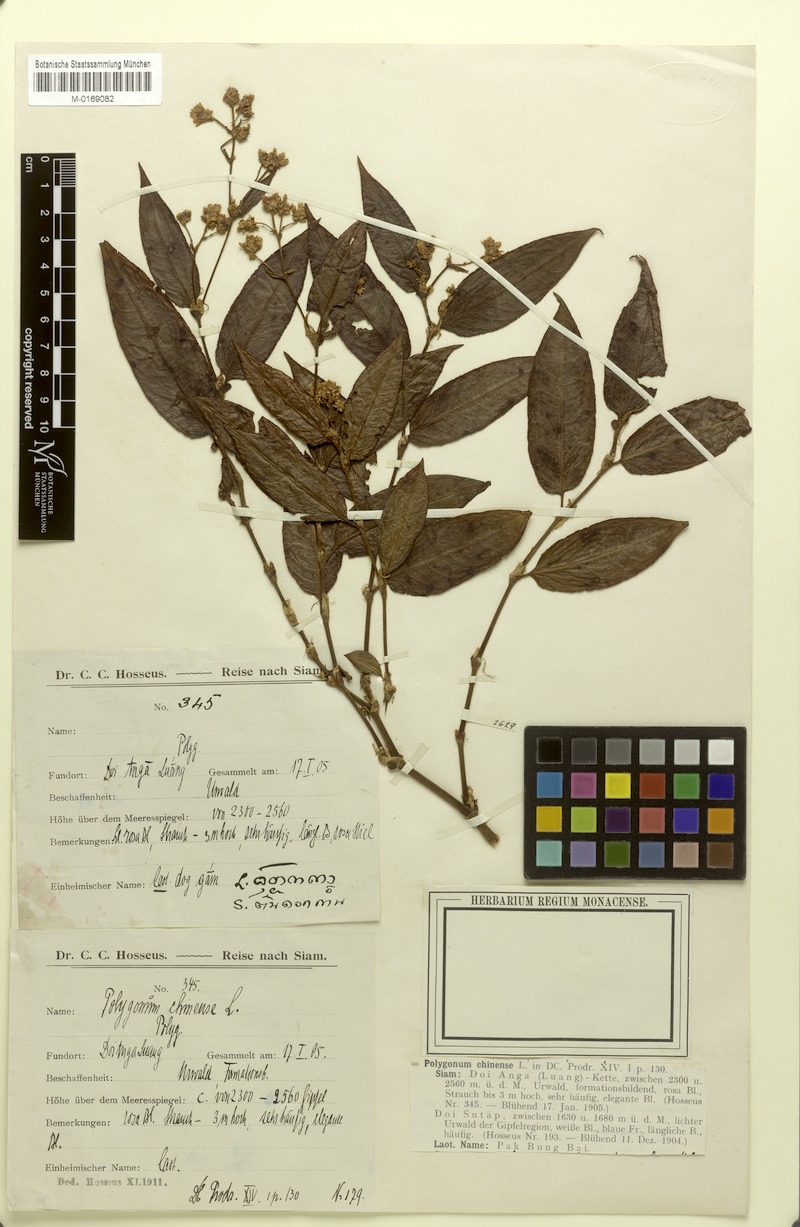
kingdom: Plantae
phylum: Tracheophyta
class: Magnoliopsida
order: Caryophyllales
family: Polygonaceae
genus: Persicaria
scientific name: Persicaria chinensis
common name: Chinese knotweed
